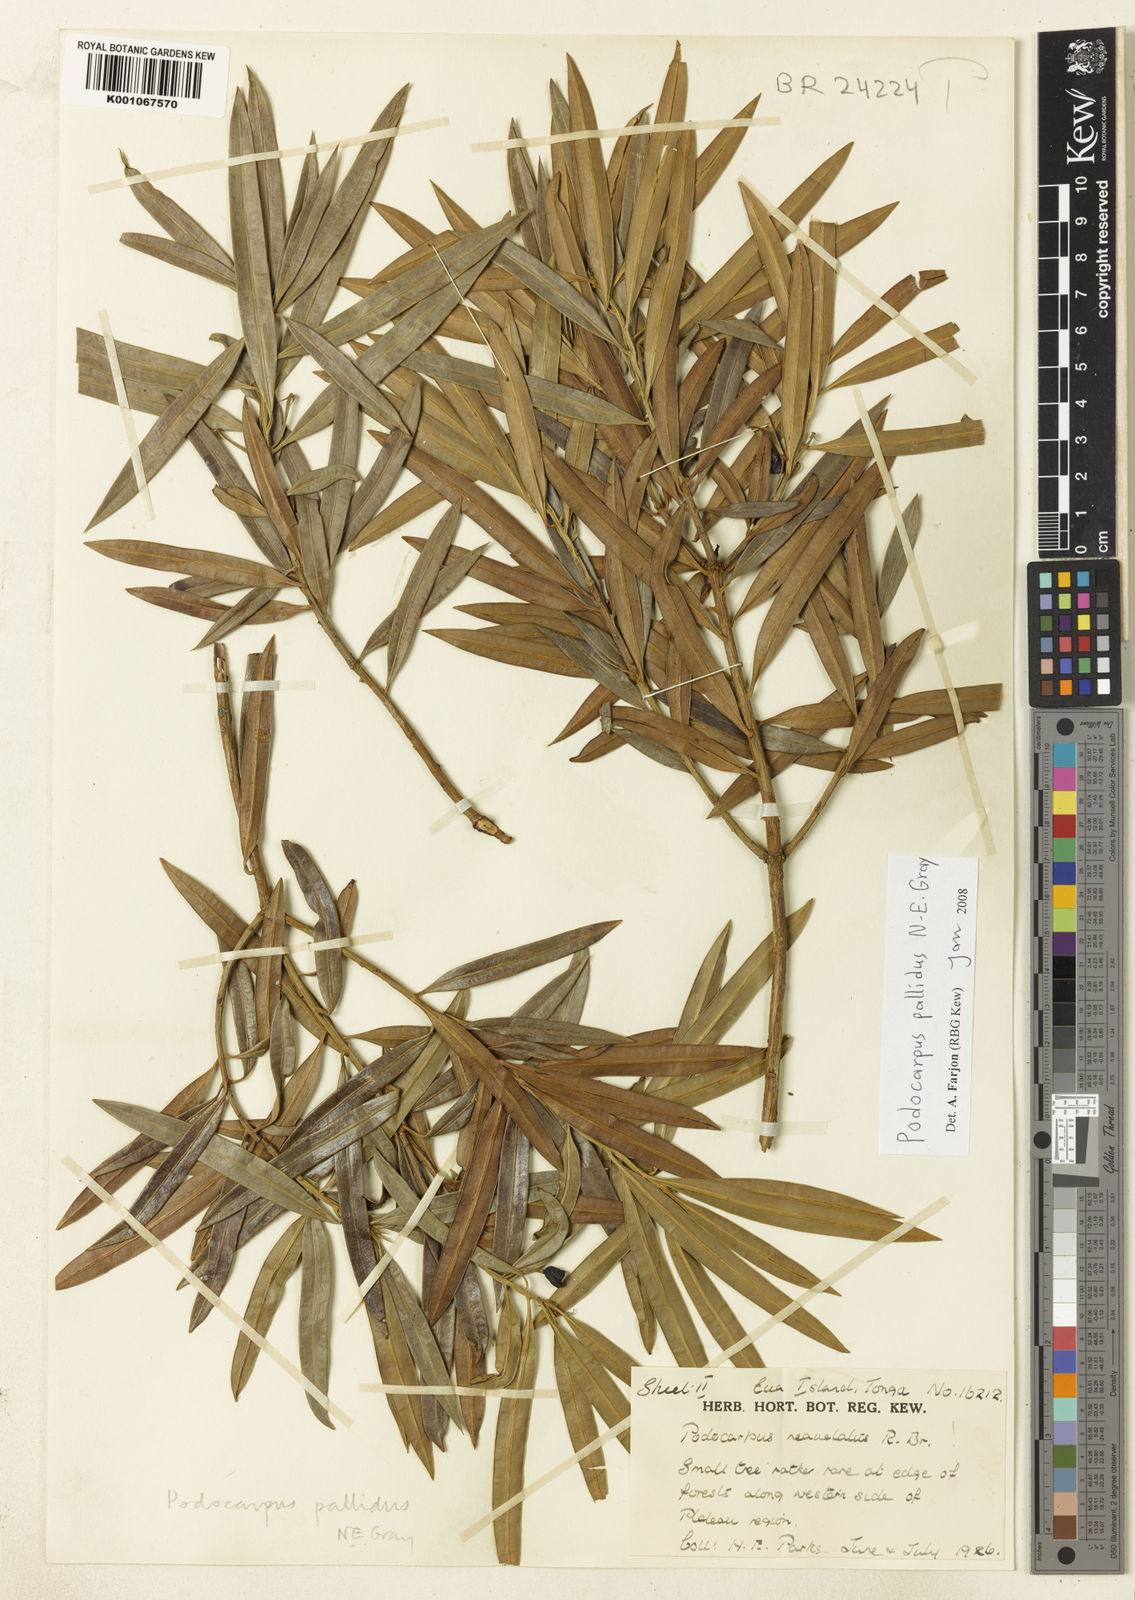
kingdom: Plantae
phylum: Tracheophyta
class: Pinopsida
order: Pinales
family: Podocarpaceae
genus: Podocarpus
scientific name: Podocarpus pallidus
